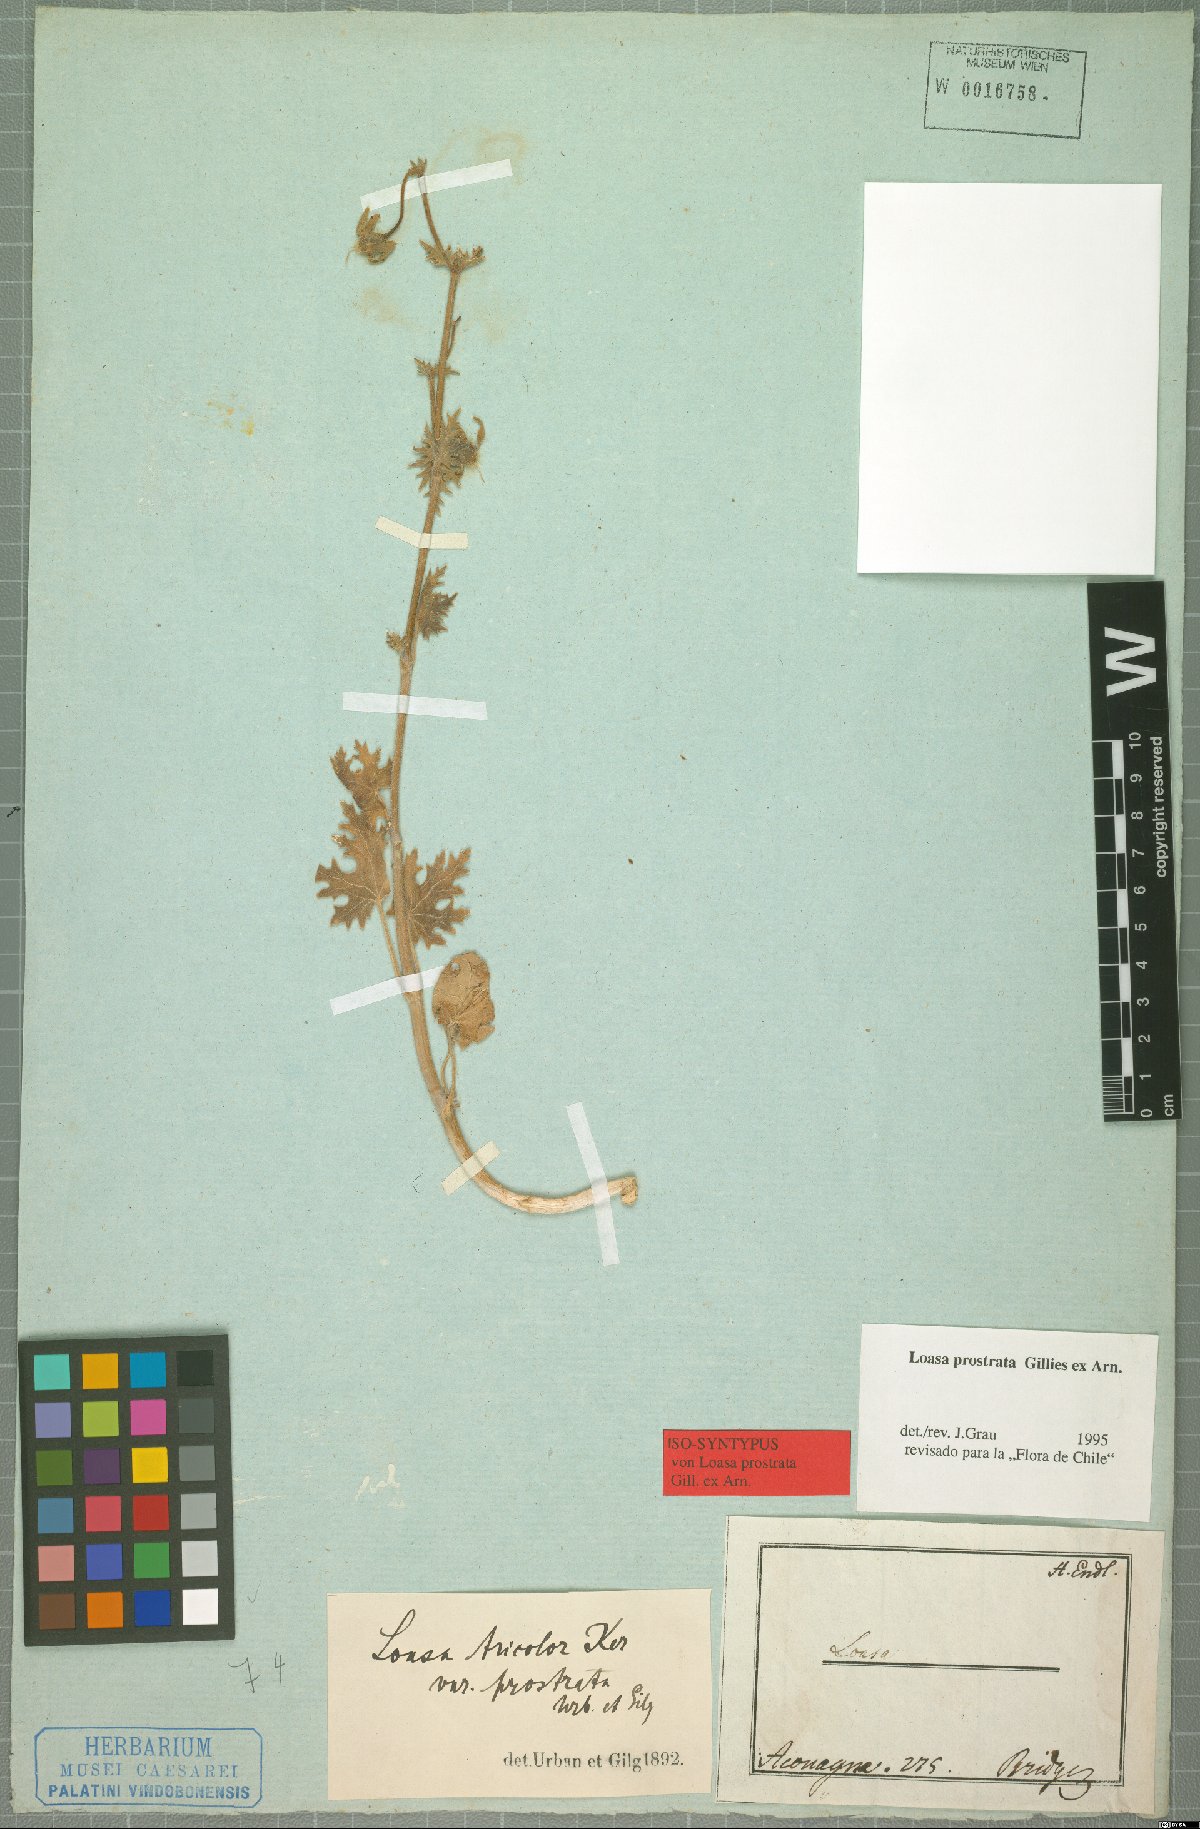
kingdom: Plantae
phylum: Tracheophyta
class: Magnoliopsida
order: Cornales
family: Loasaceae
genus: Loasa
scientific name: Loasa prostrata
